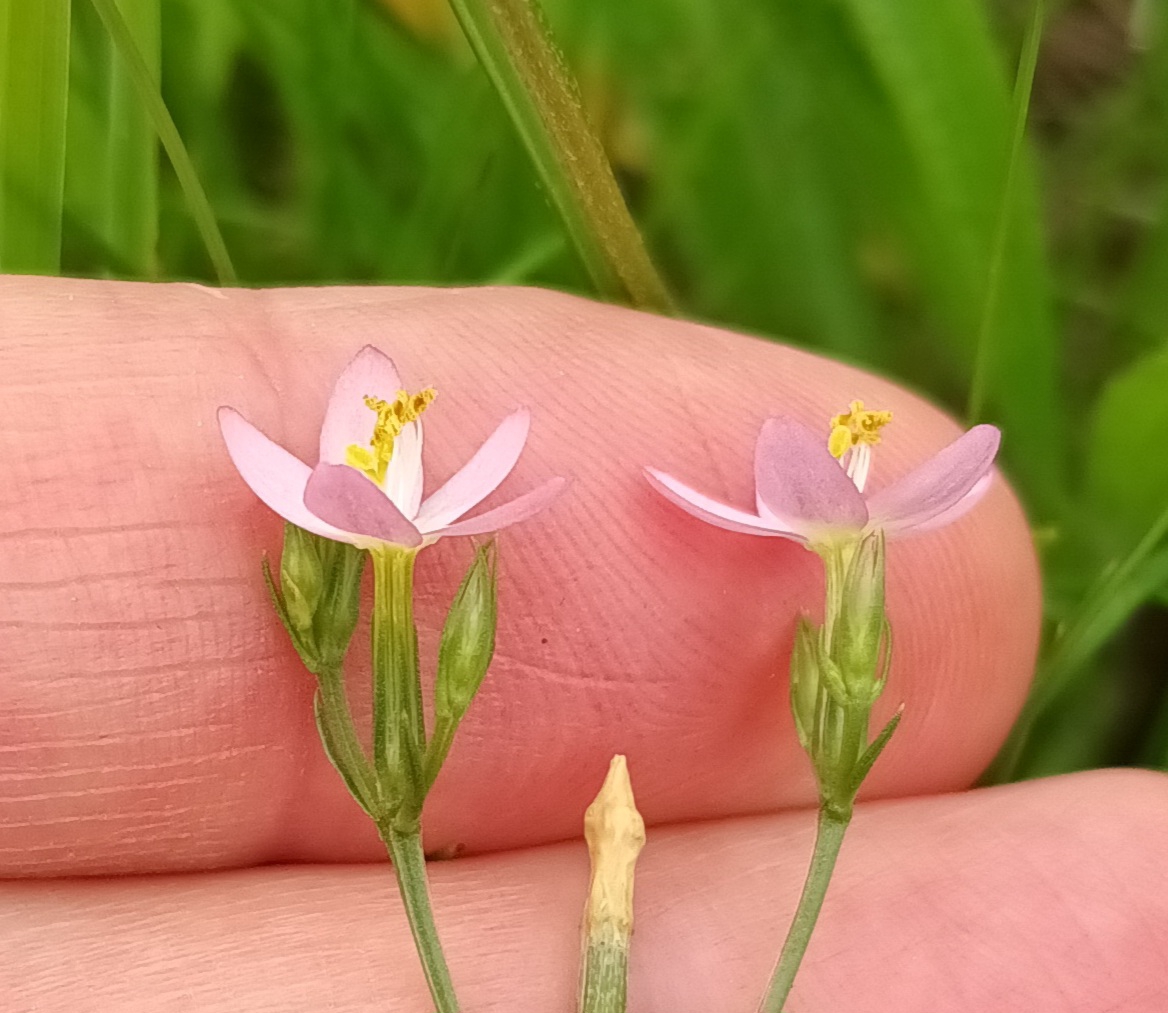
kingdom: Plantae
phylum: Tracheophyta
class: Magnoliopsida
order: Gentianales
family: Gentianaceae
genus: Centaurium
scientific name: Centaurium erythraea
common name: Mark-tusindgylden
